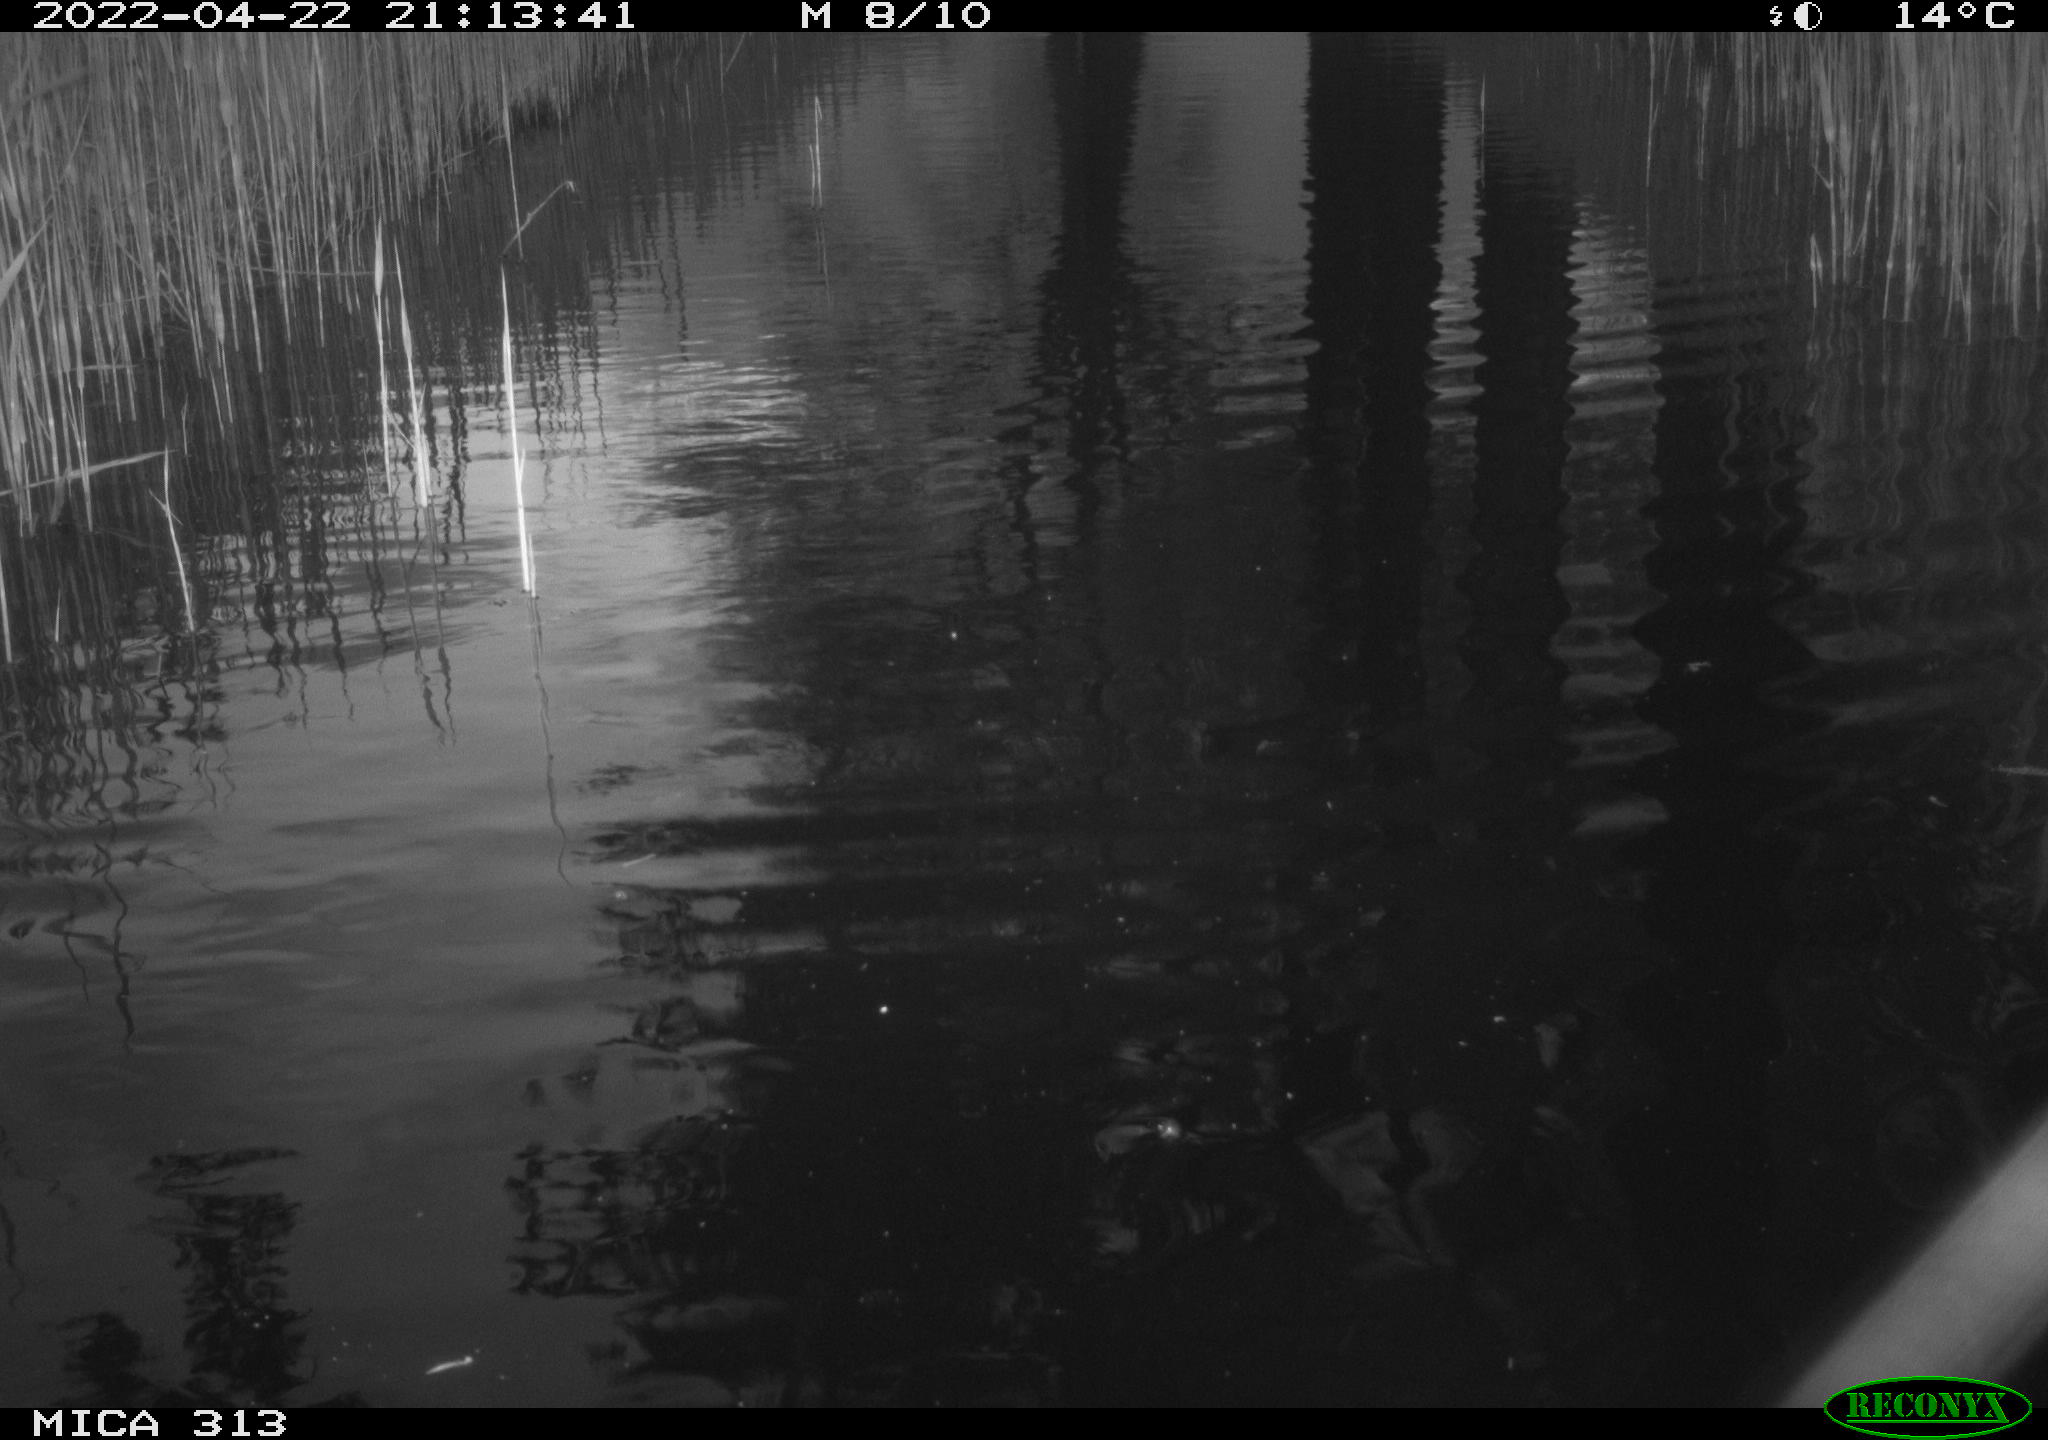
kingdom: Animalia
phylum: Chordata
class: Aves
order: Gruiformes
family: Rallidae
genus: Gallinula
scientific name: Gallinula chloropus
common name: Common moorhen
